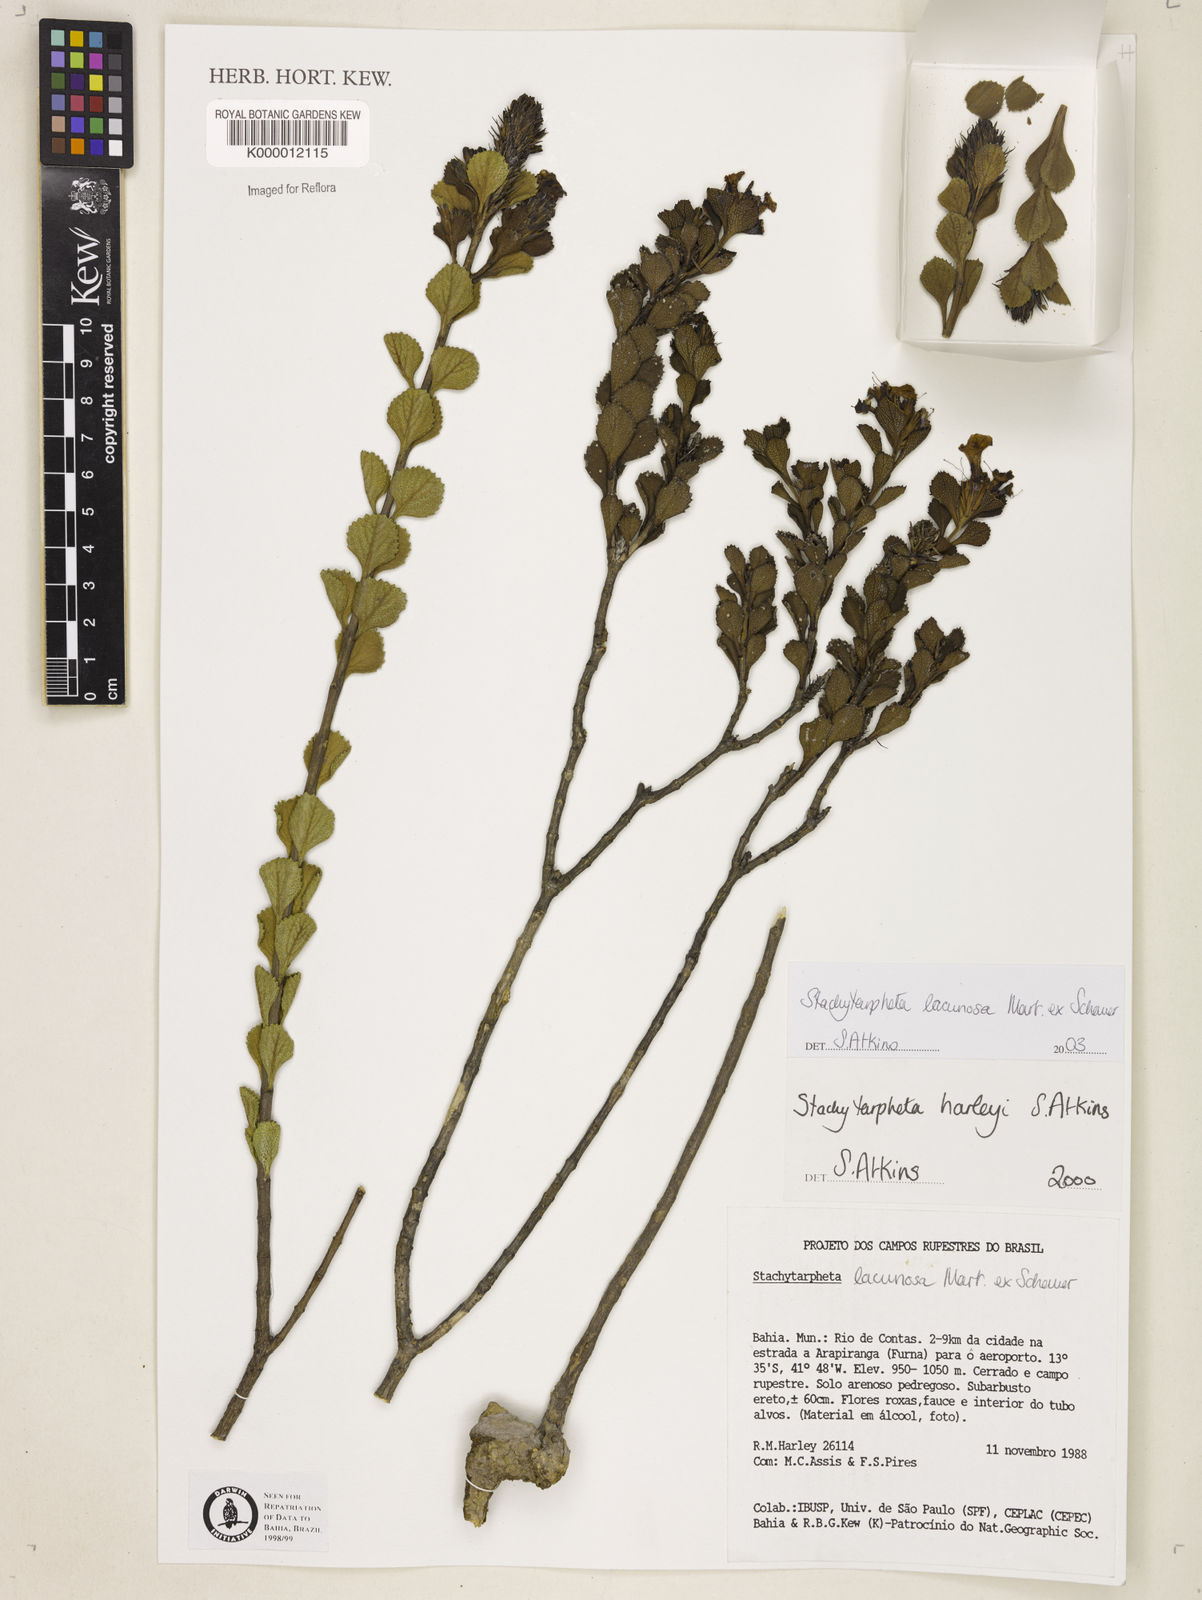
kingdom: Plantae
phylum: Tracheophyta
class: Magnoliopsida
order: Lamiales
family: Verbenaceae
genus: Stachytarpheta
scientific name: Stachytarpheta harleyi
